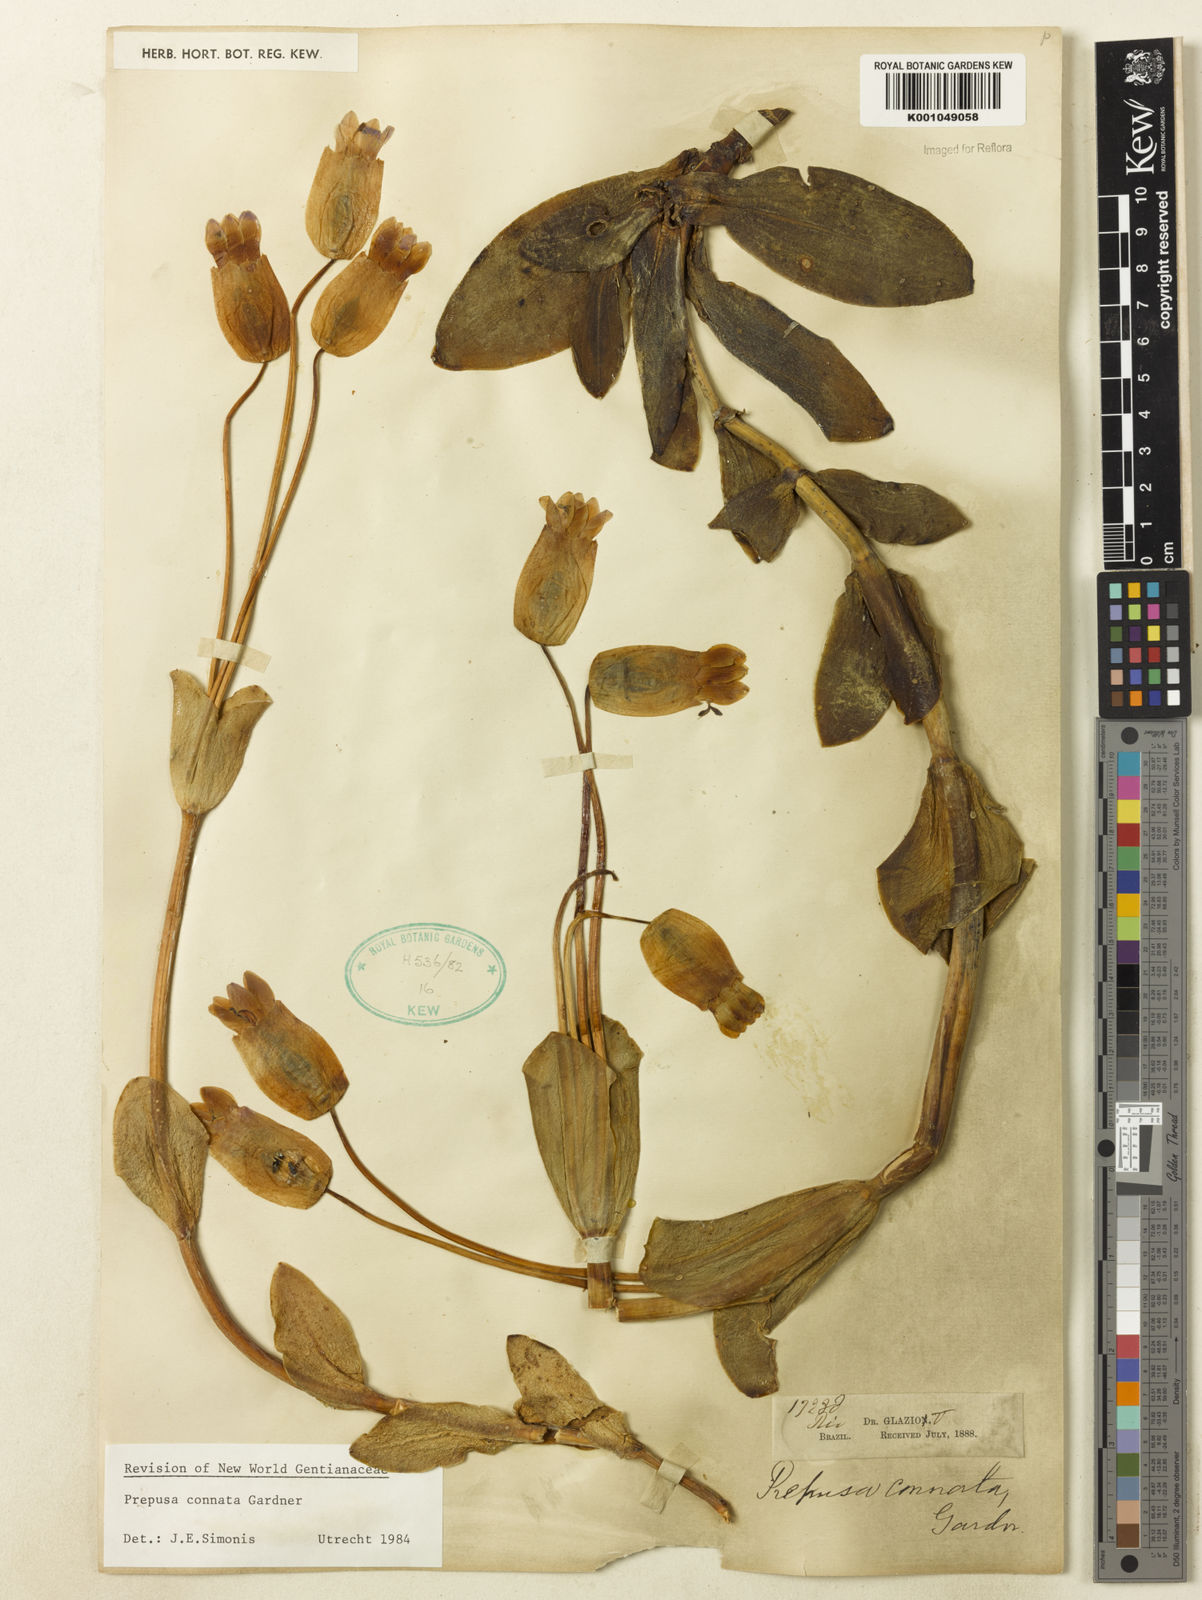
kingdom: Plantae
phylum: Tracheophyta
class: Magnoliopsida
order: Gentianales
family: Gentianaceae
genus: Prepusa
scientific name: Prepusa connata
